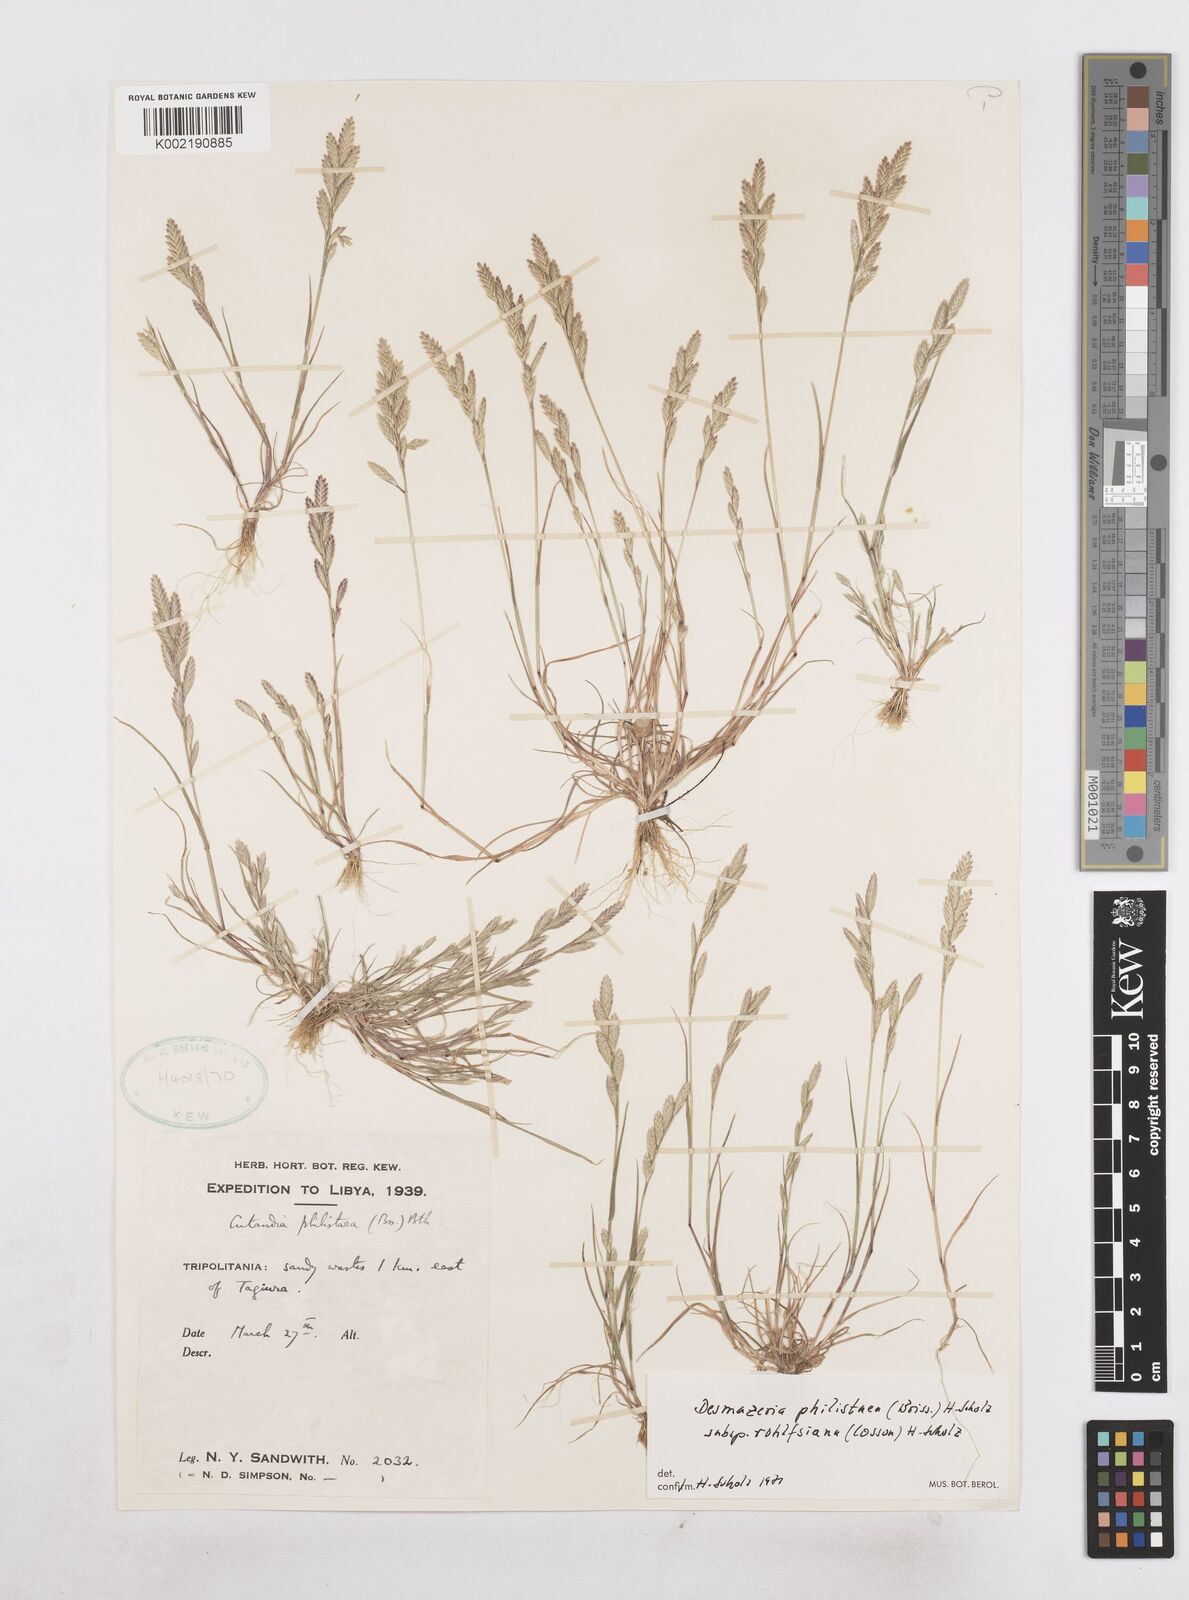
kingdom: Plantae
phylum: Tracheophyta
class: Liliopsida
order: Poales
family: Poaceae
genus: Desmazeria
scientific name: Desmazeria philistaea
